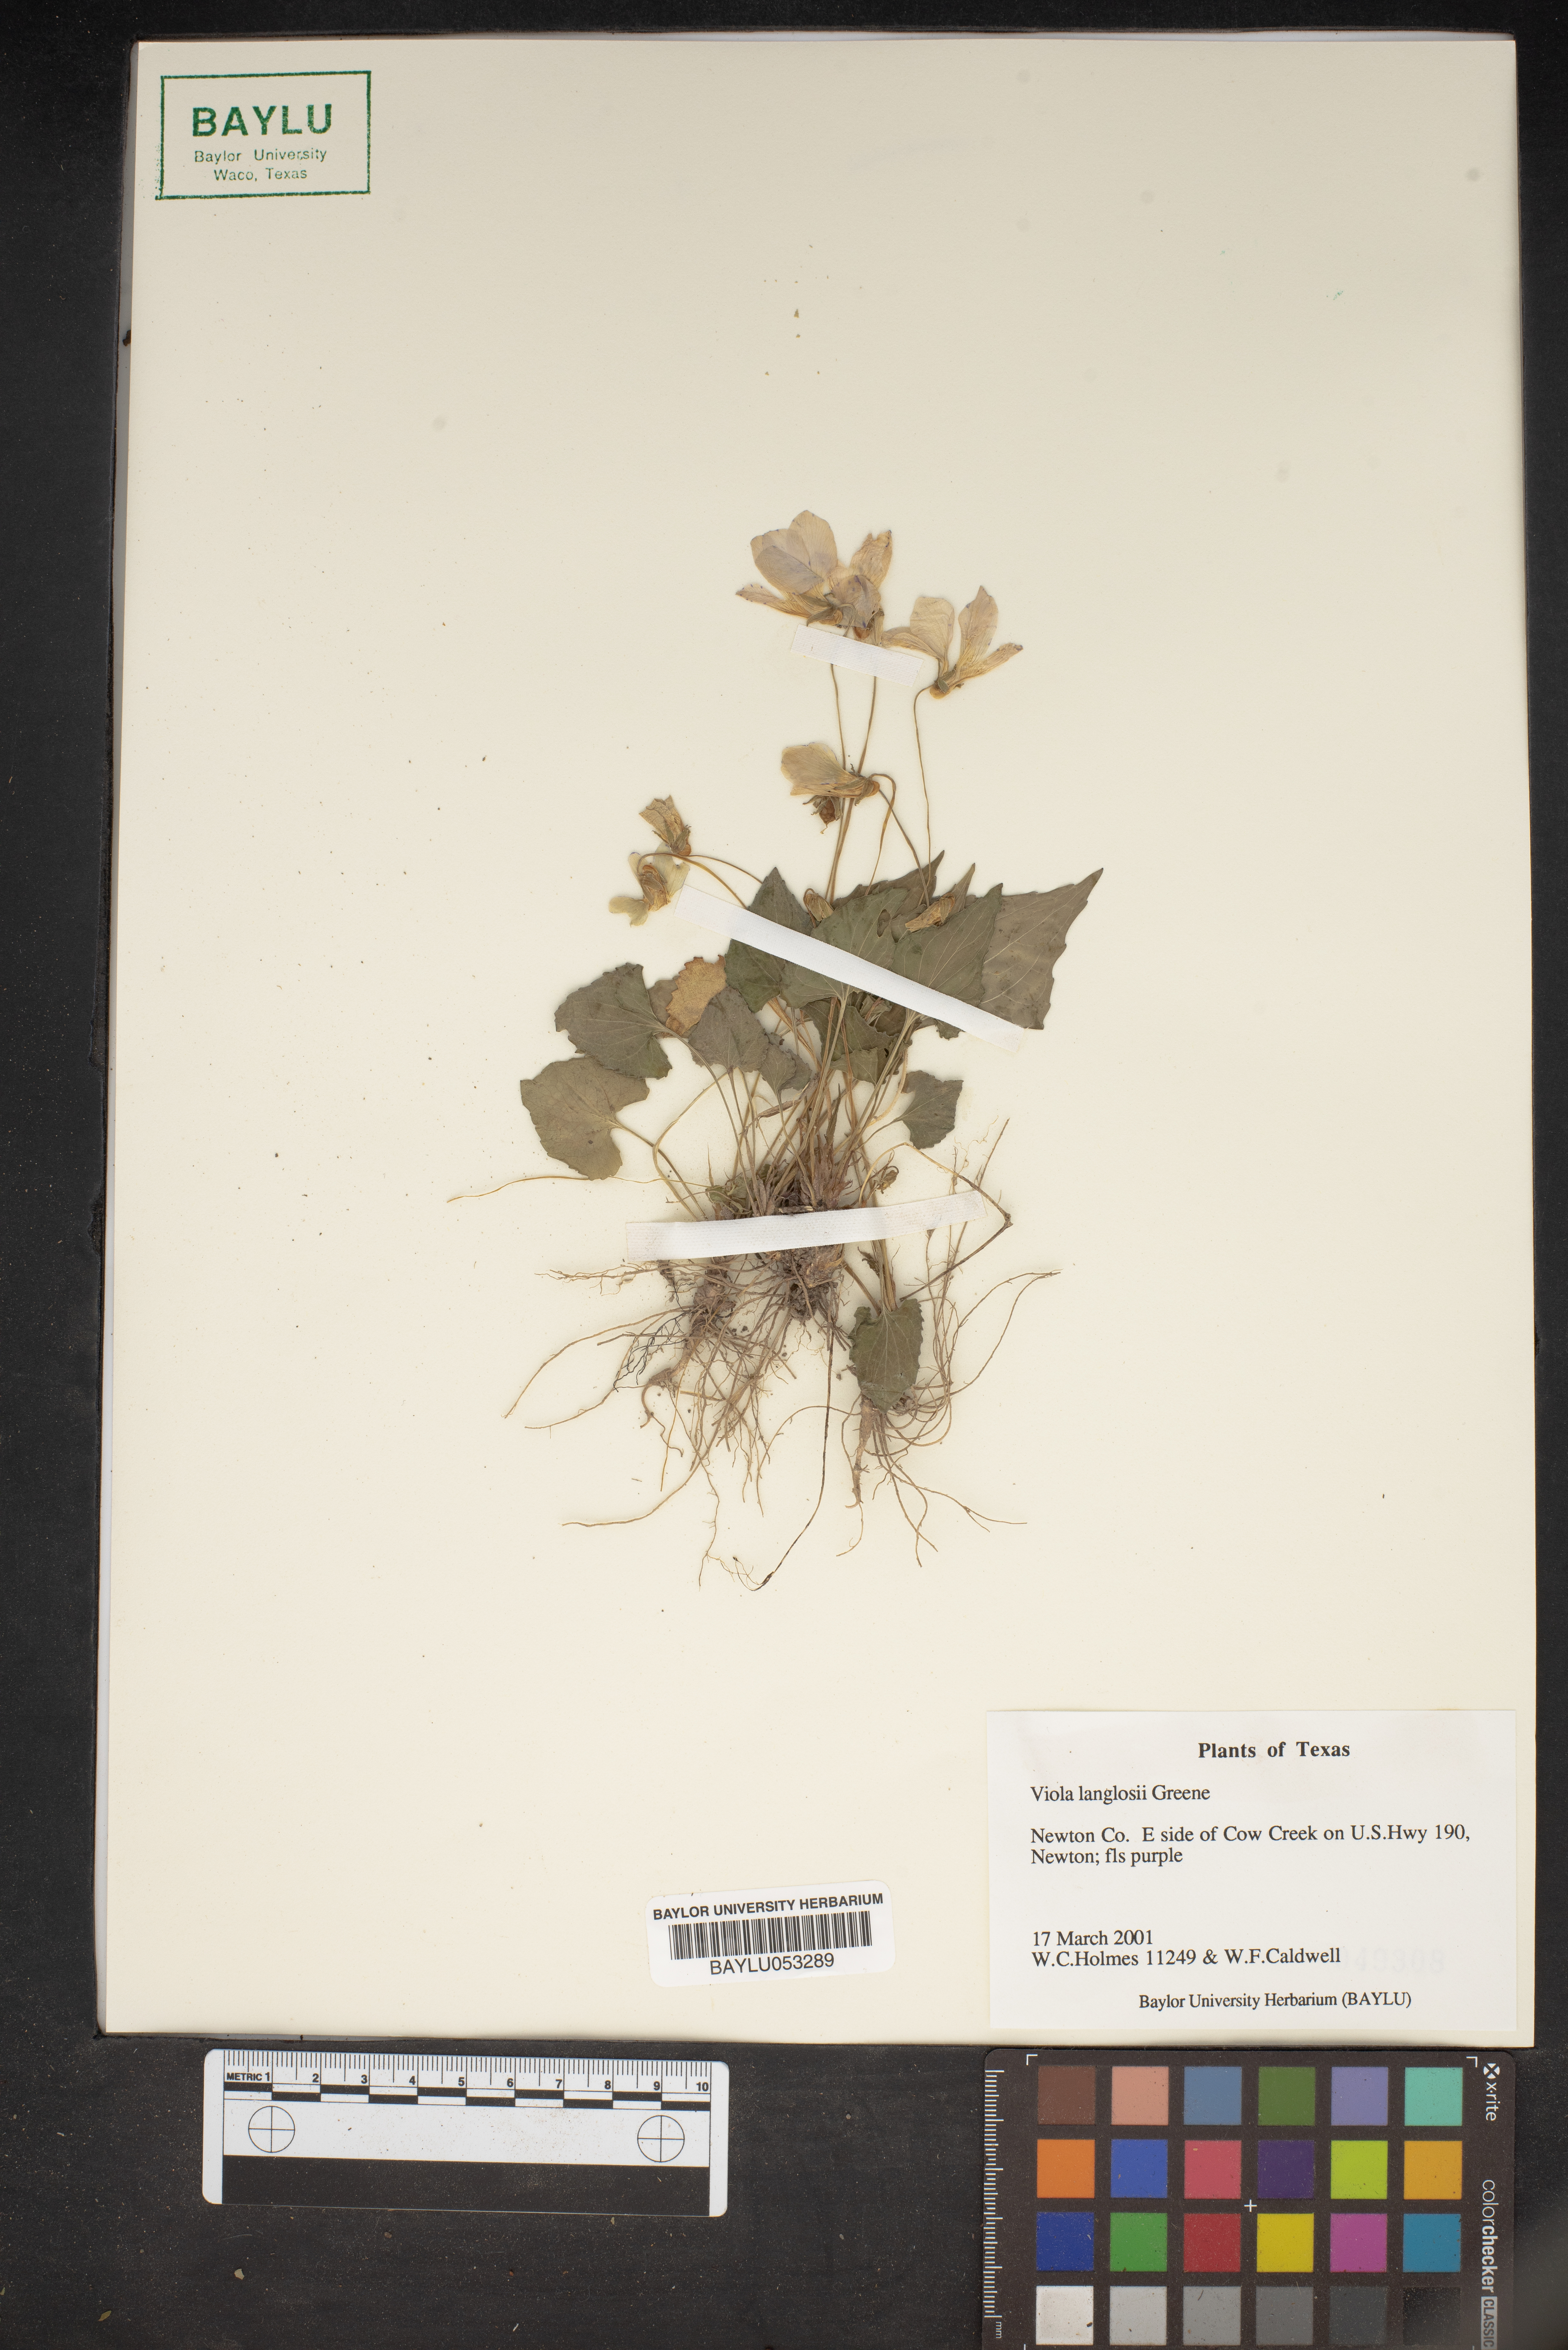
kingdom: Plantae
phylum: Tracheophyta
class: Magnoliopsida
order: Malpighiales
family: Violaceae
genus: Viola
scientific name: Viola langloisii
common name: Langlois' violet
